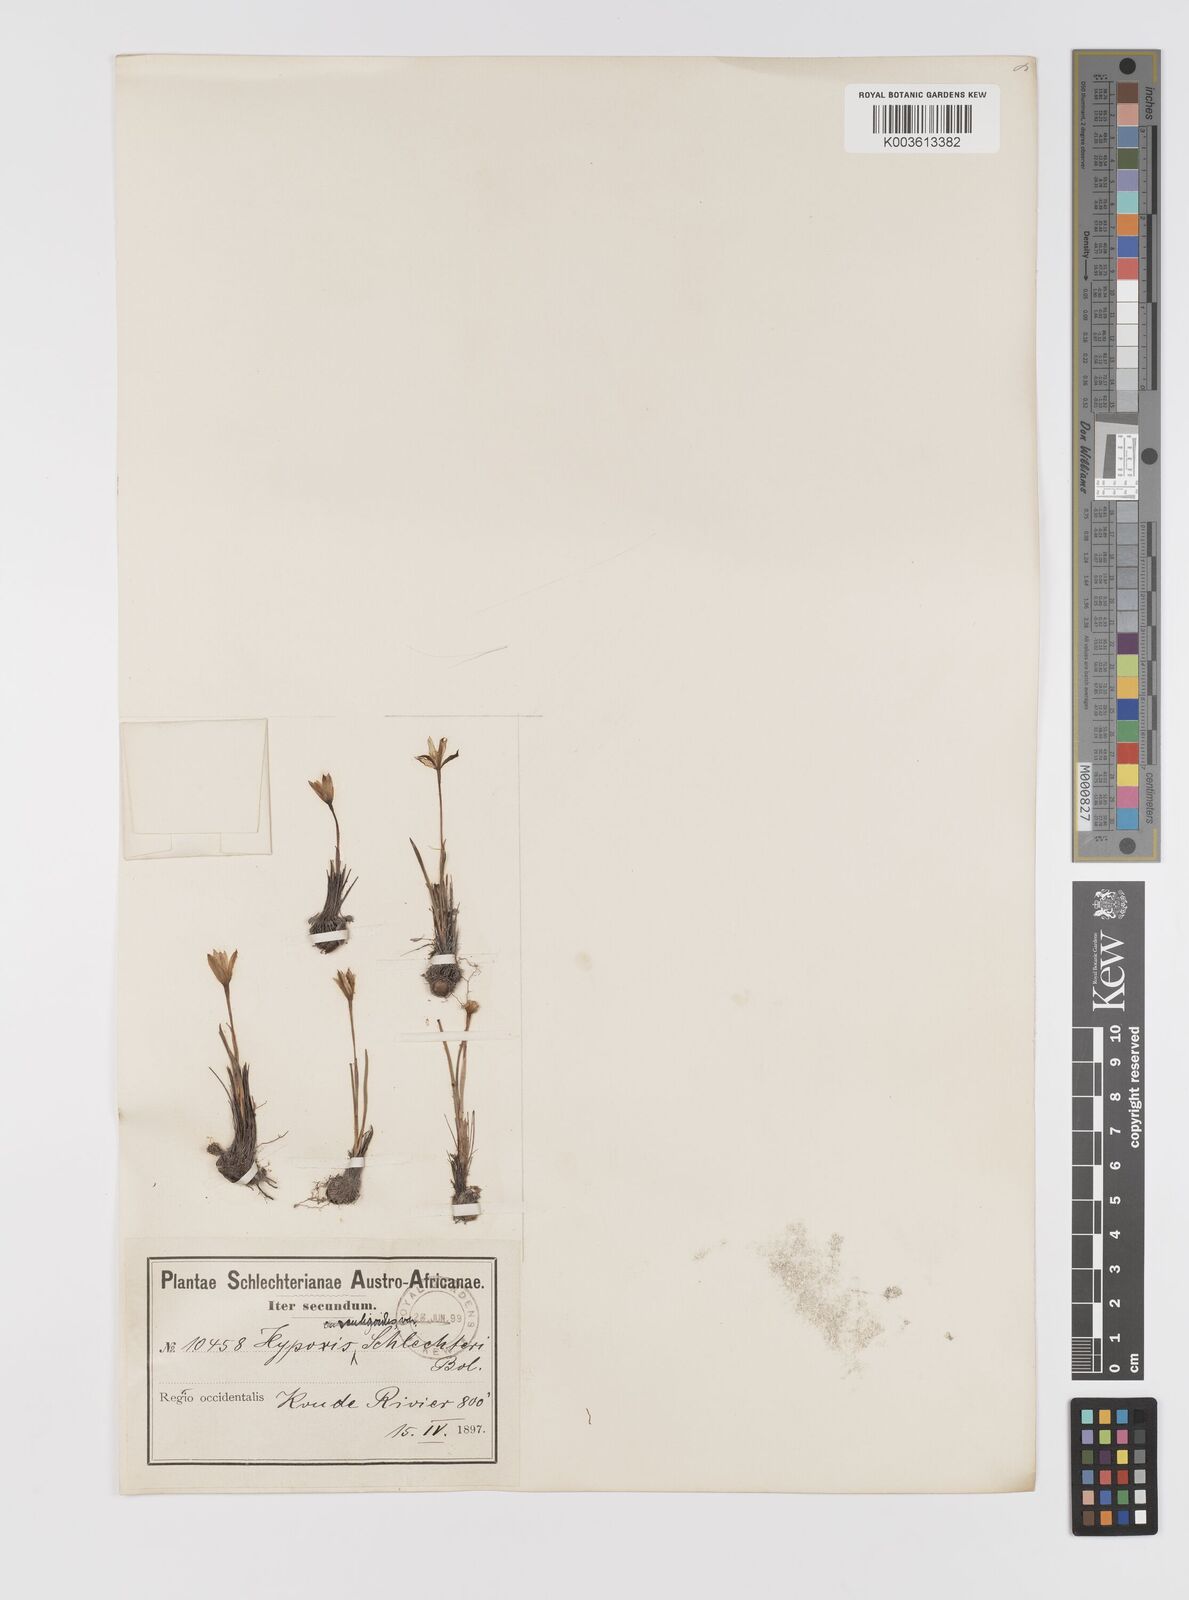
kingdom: Plantae
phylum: Tracheophyta
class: Liliopsida
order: Asparagales
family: Hypoxidaceae
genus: Pauridia
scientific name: Pauridia affinis
